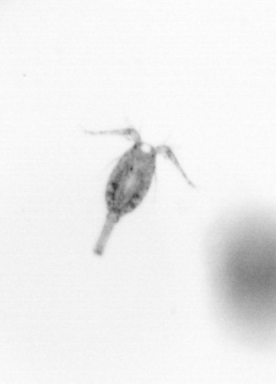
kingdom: Animalia
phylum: Arthropoda
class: Copepoda
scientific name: Copepoda
